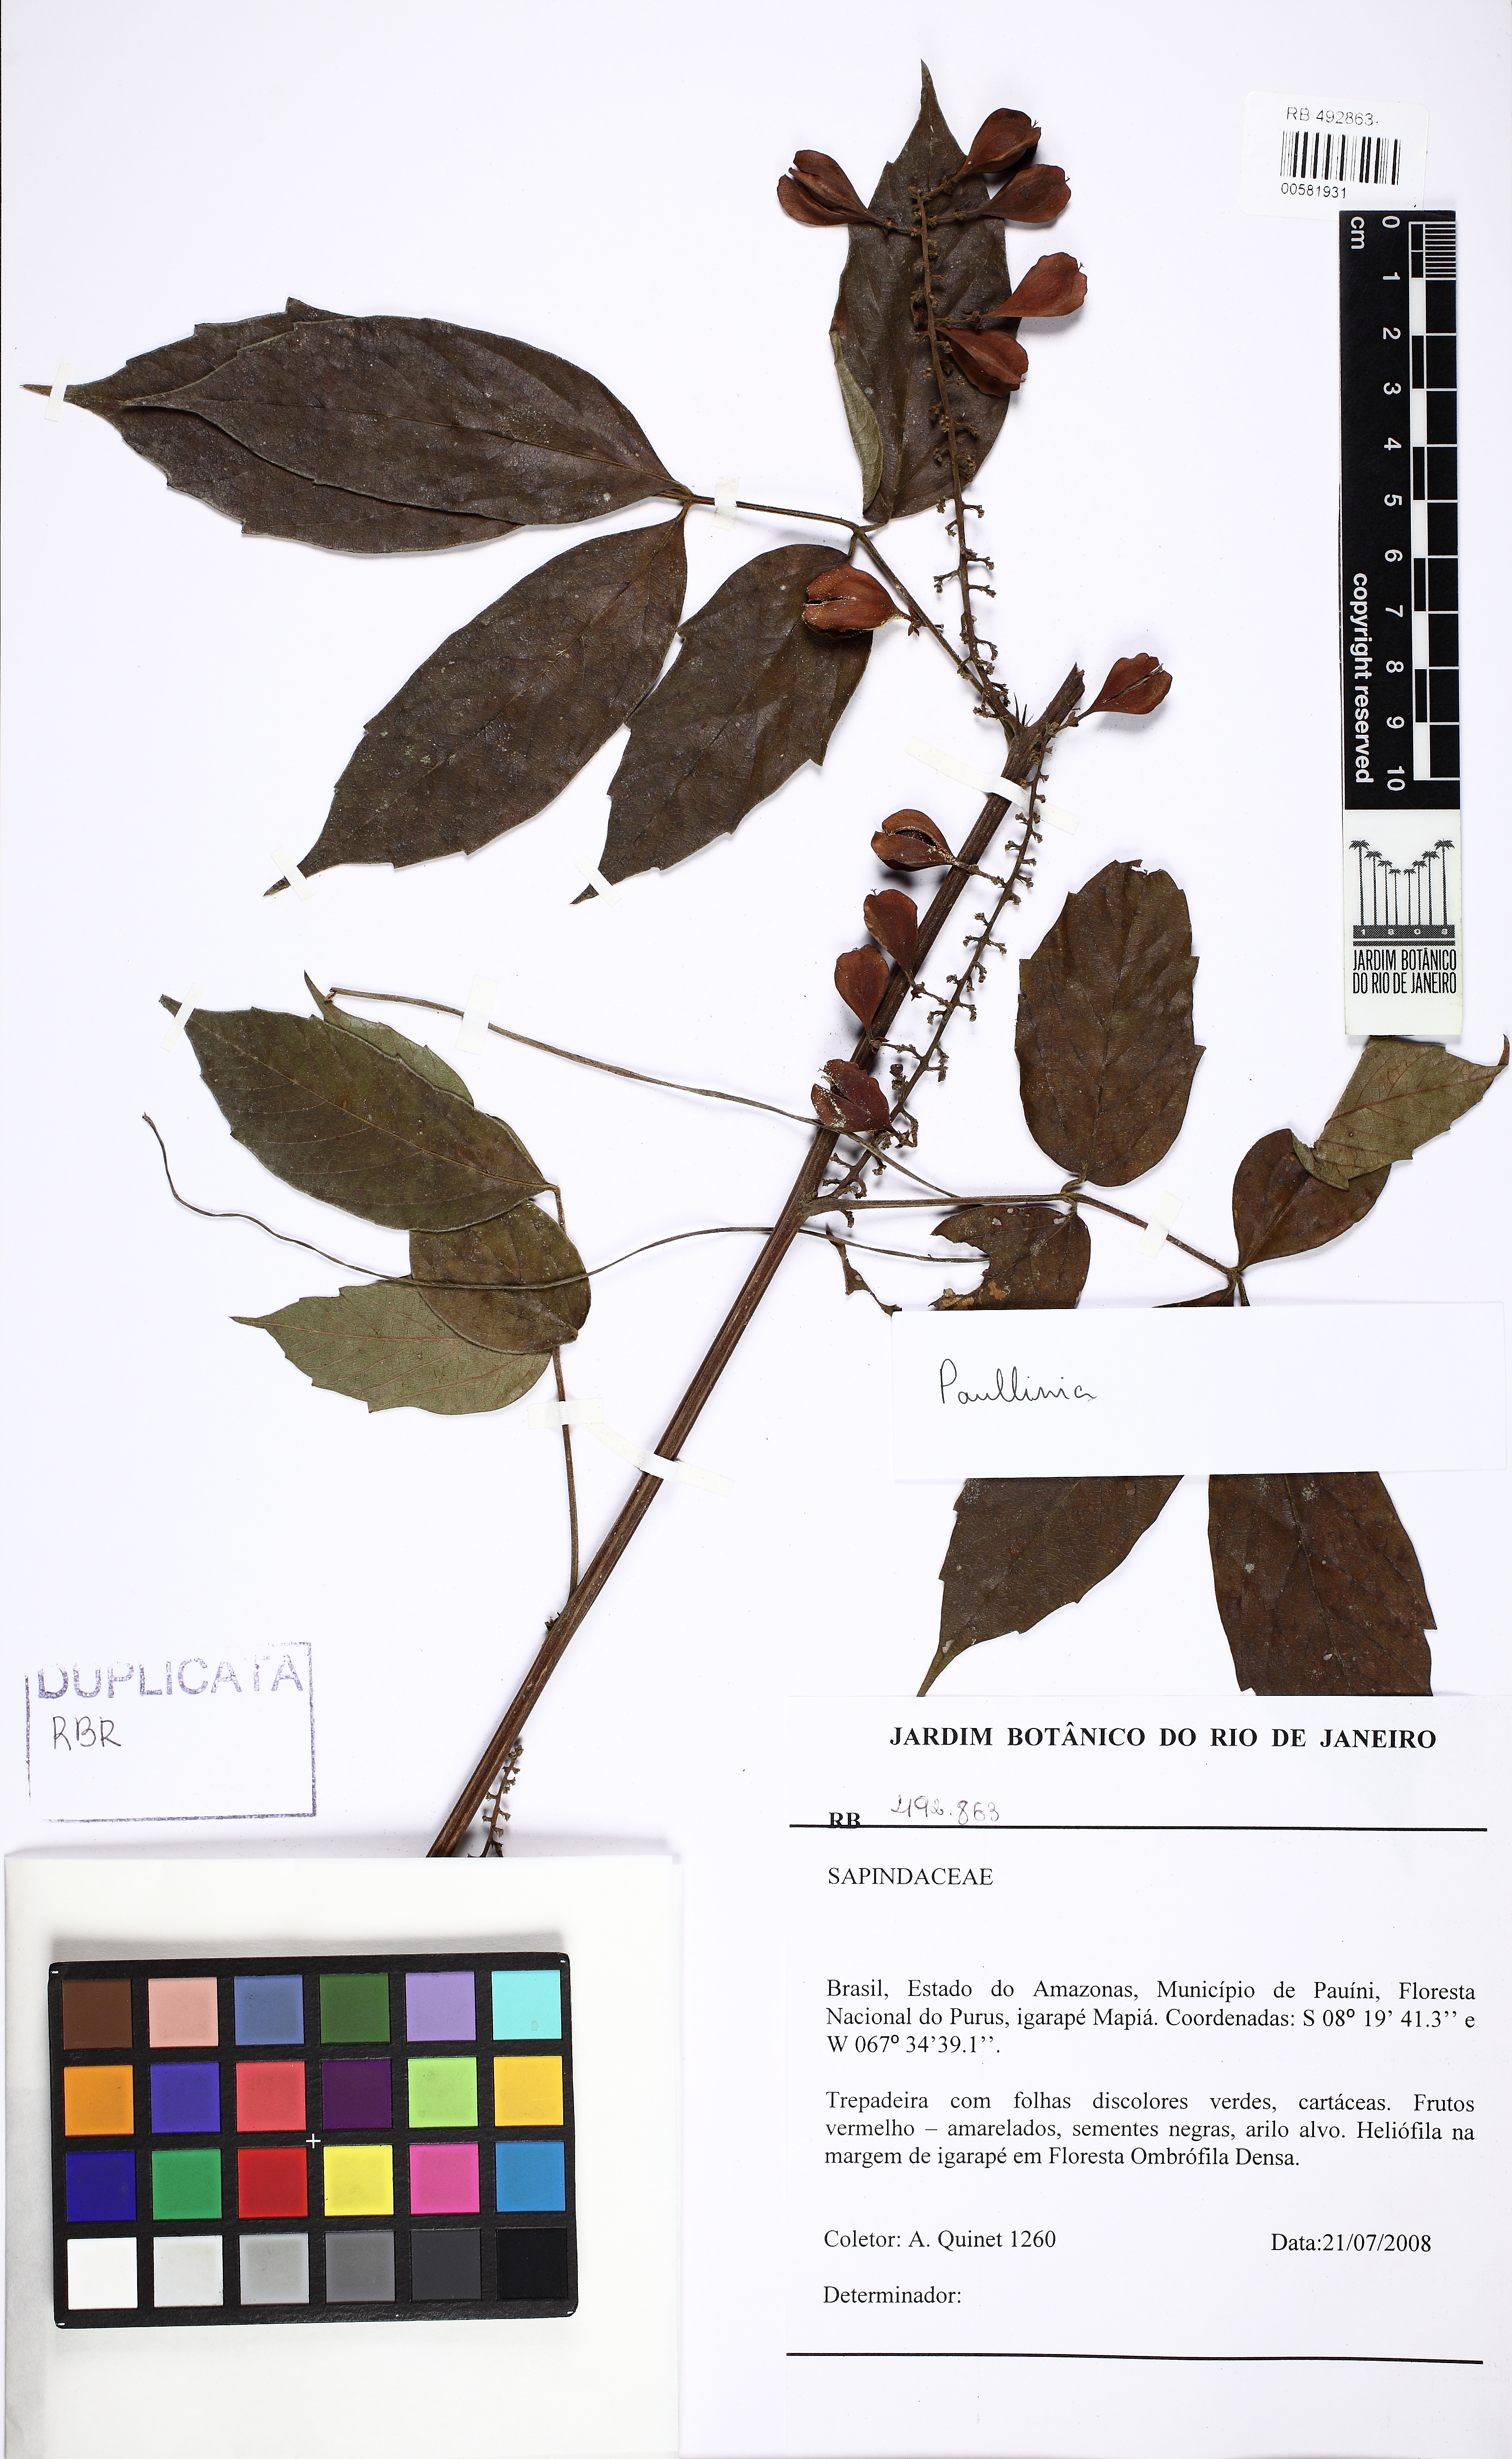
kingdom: Plantae
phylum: Tracheophyta
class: Magnoliopsida
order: Sapindales
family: Sapindaceae
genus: Paullinia
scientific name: Paullinia
